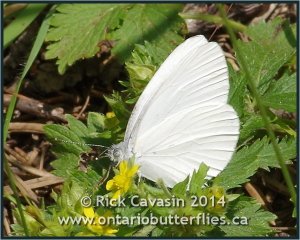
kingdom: Animalia
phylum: Arthropoda
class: Insecta
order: Lepidoptera
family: Pieridae
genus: Pieris
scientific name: Pieris oleracea
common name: Mustard White
